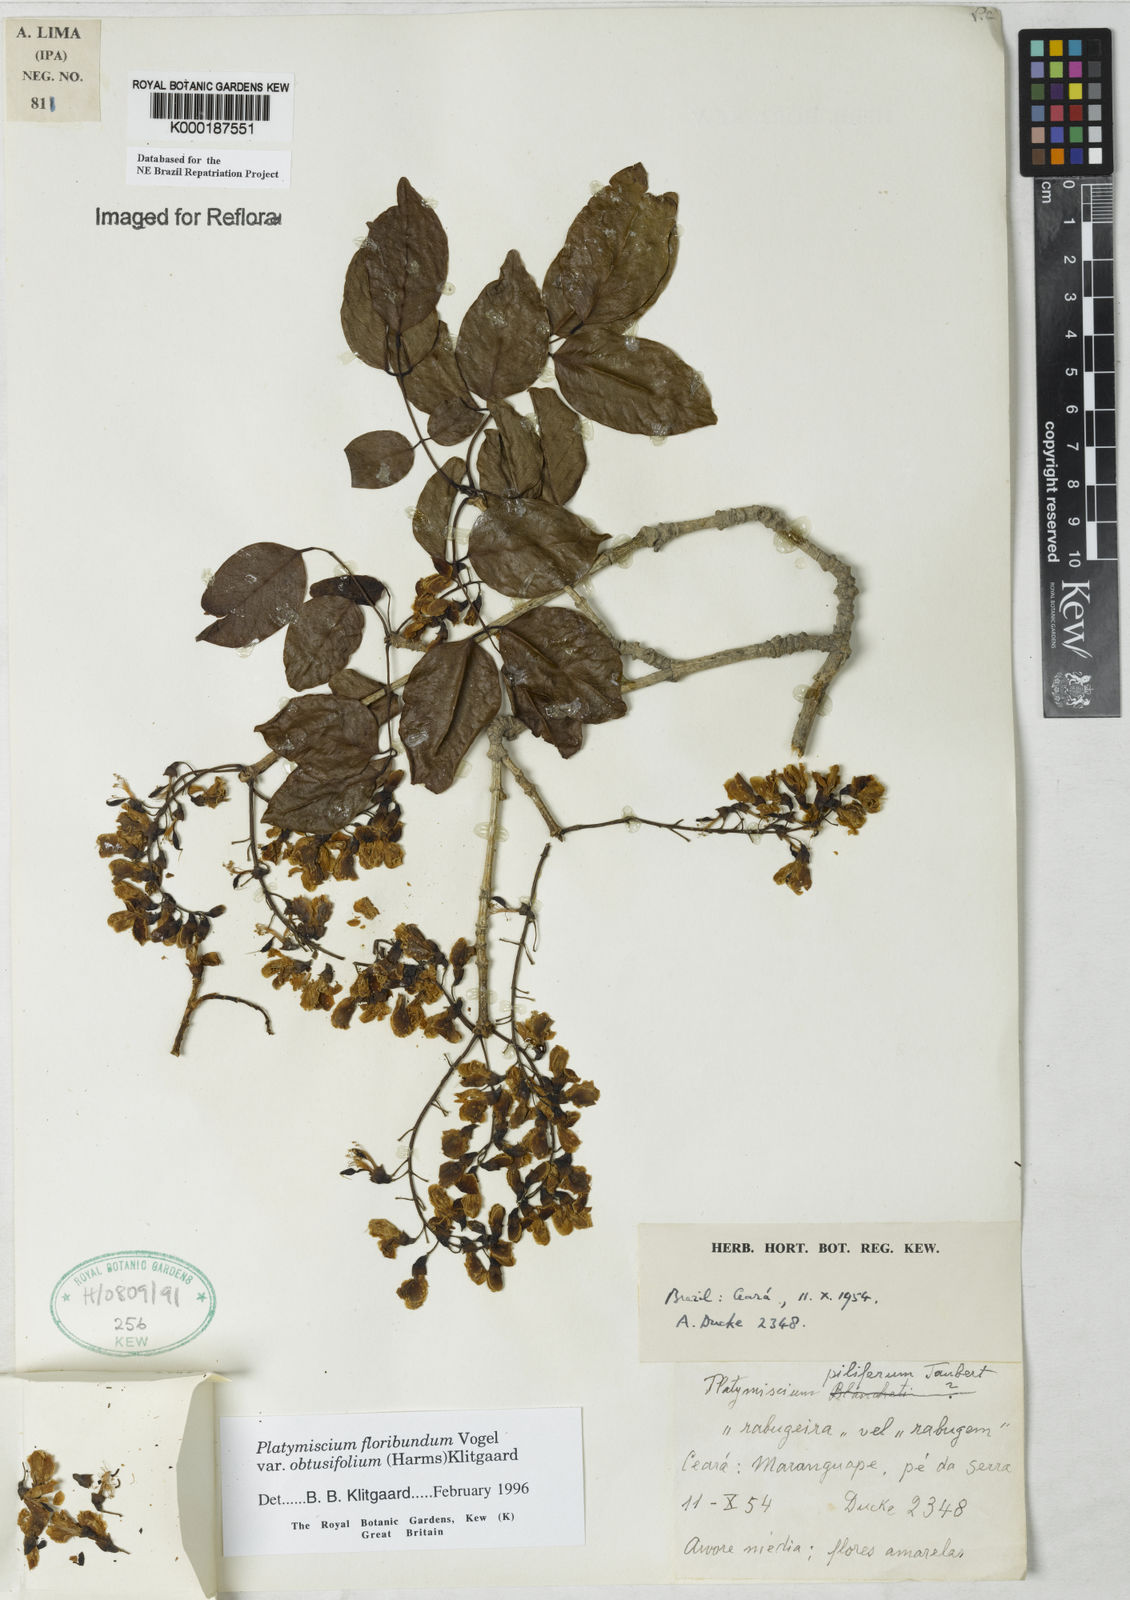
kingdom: Plantae
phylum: Tracheophyta
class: Magnoliopsida
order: Fabales
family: Fabaceae
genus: Platymiscium
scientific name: Platymiscium floribundum
